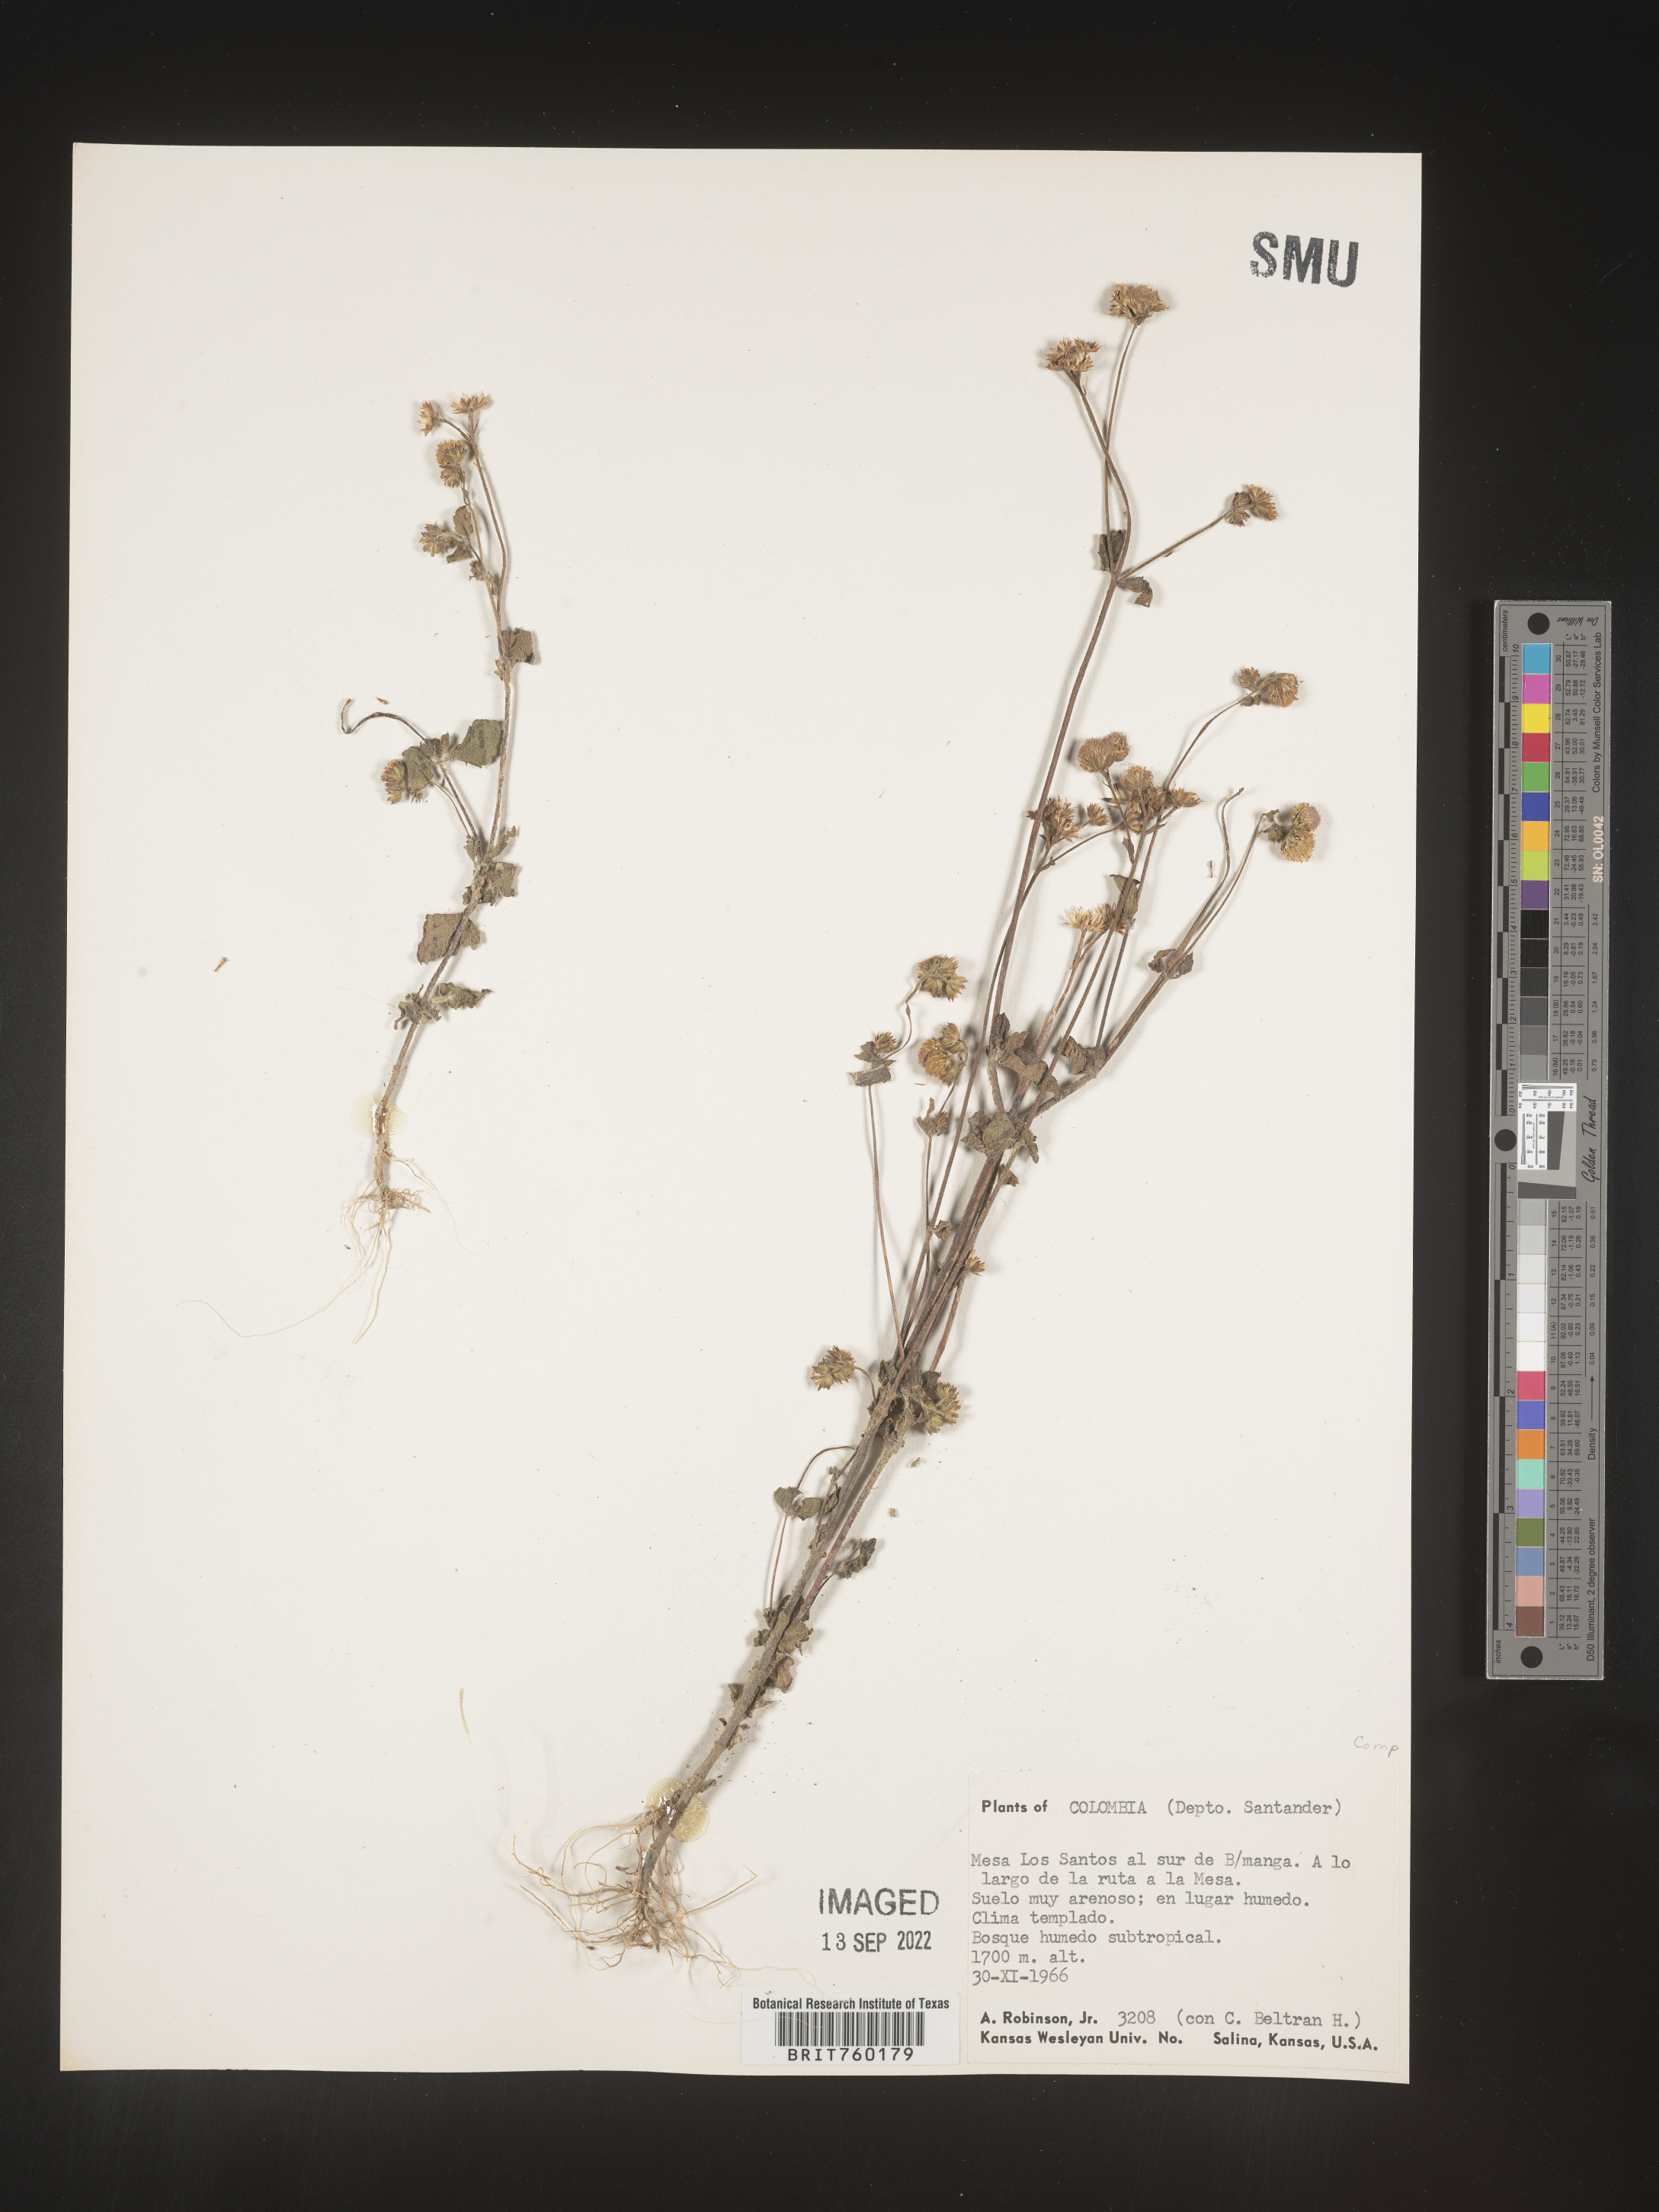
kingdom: Plantae
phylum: Tracheophyta
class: Magnoliopsida
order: Asterales
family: Asteraceae
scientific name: Asteraceae
